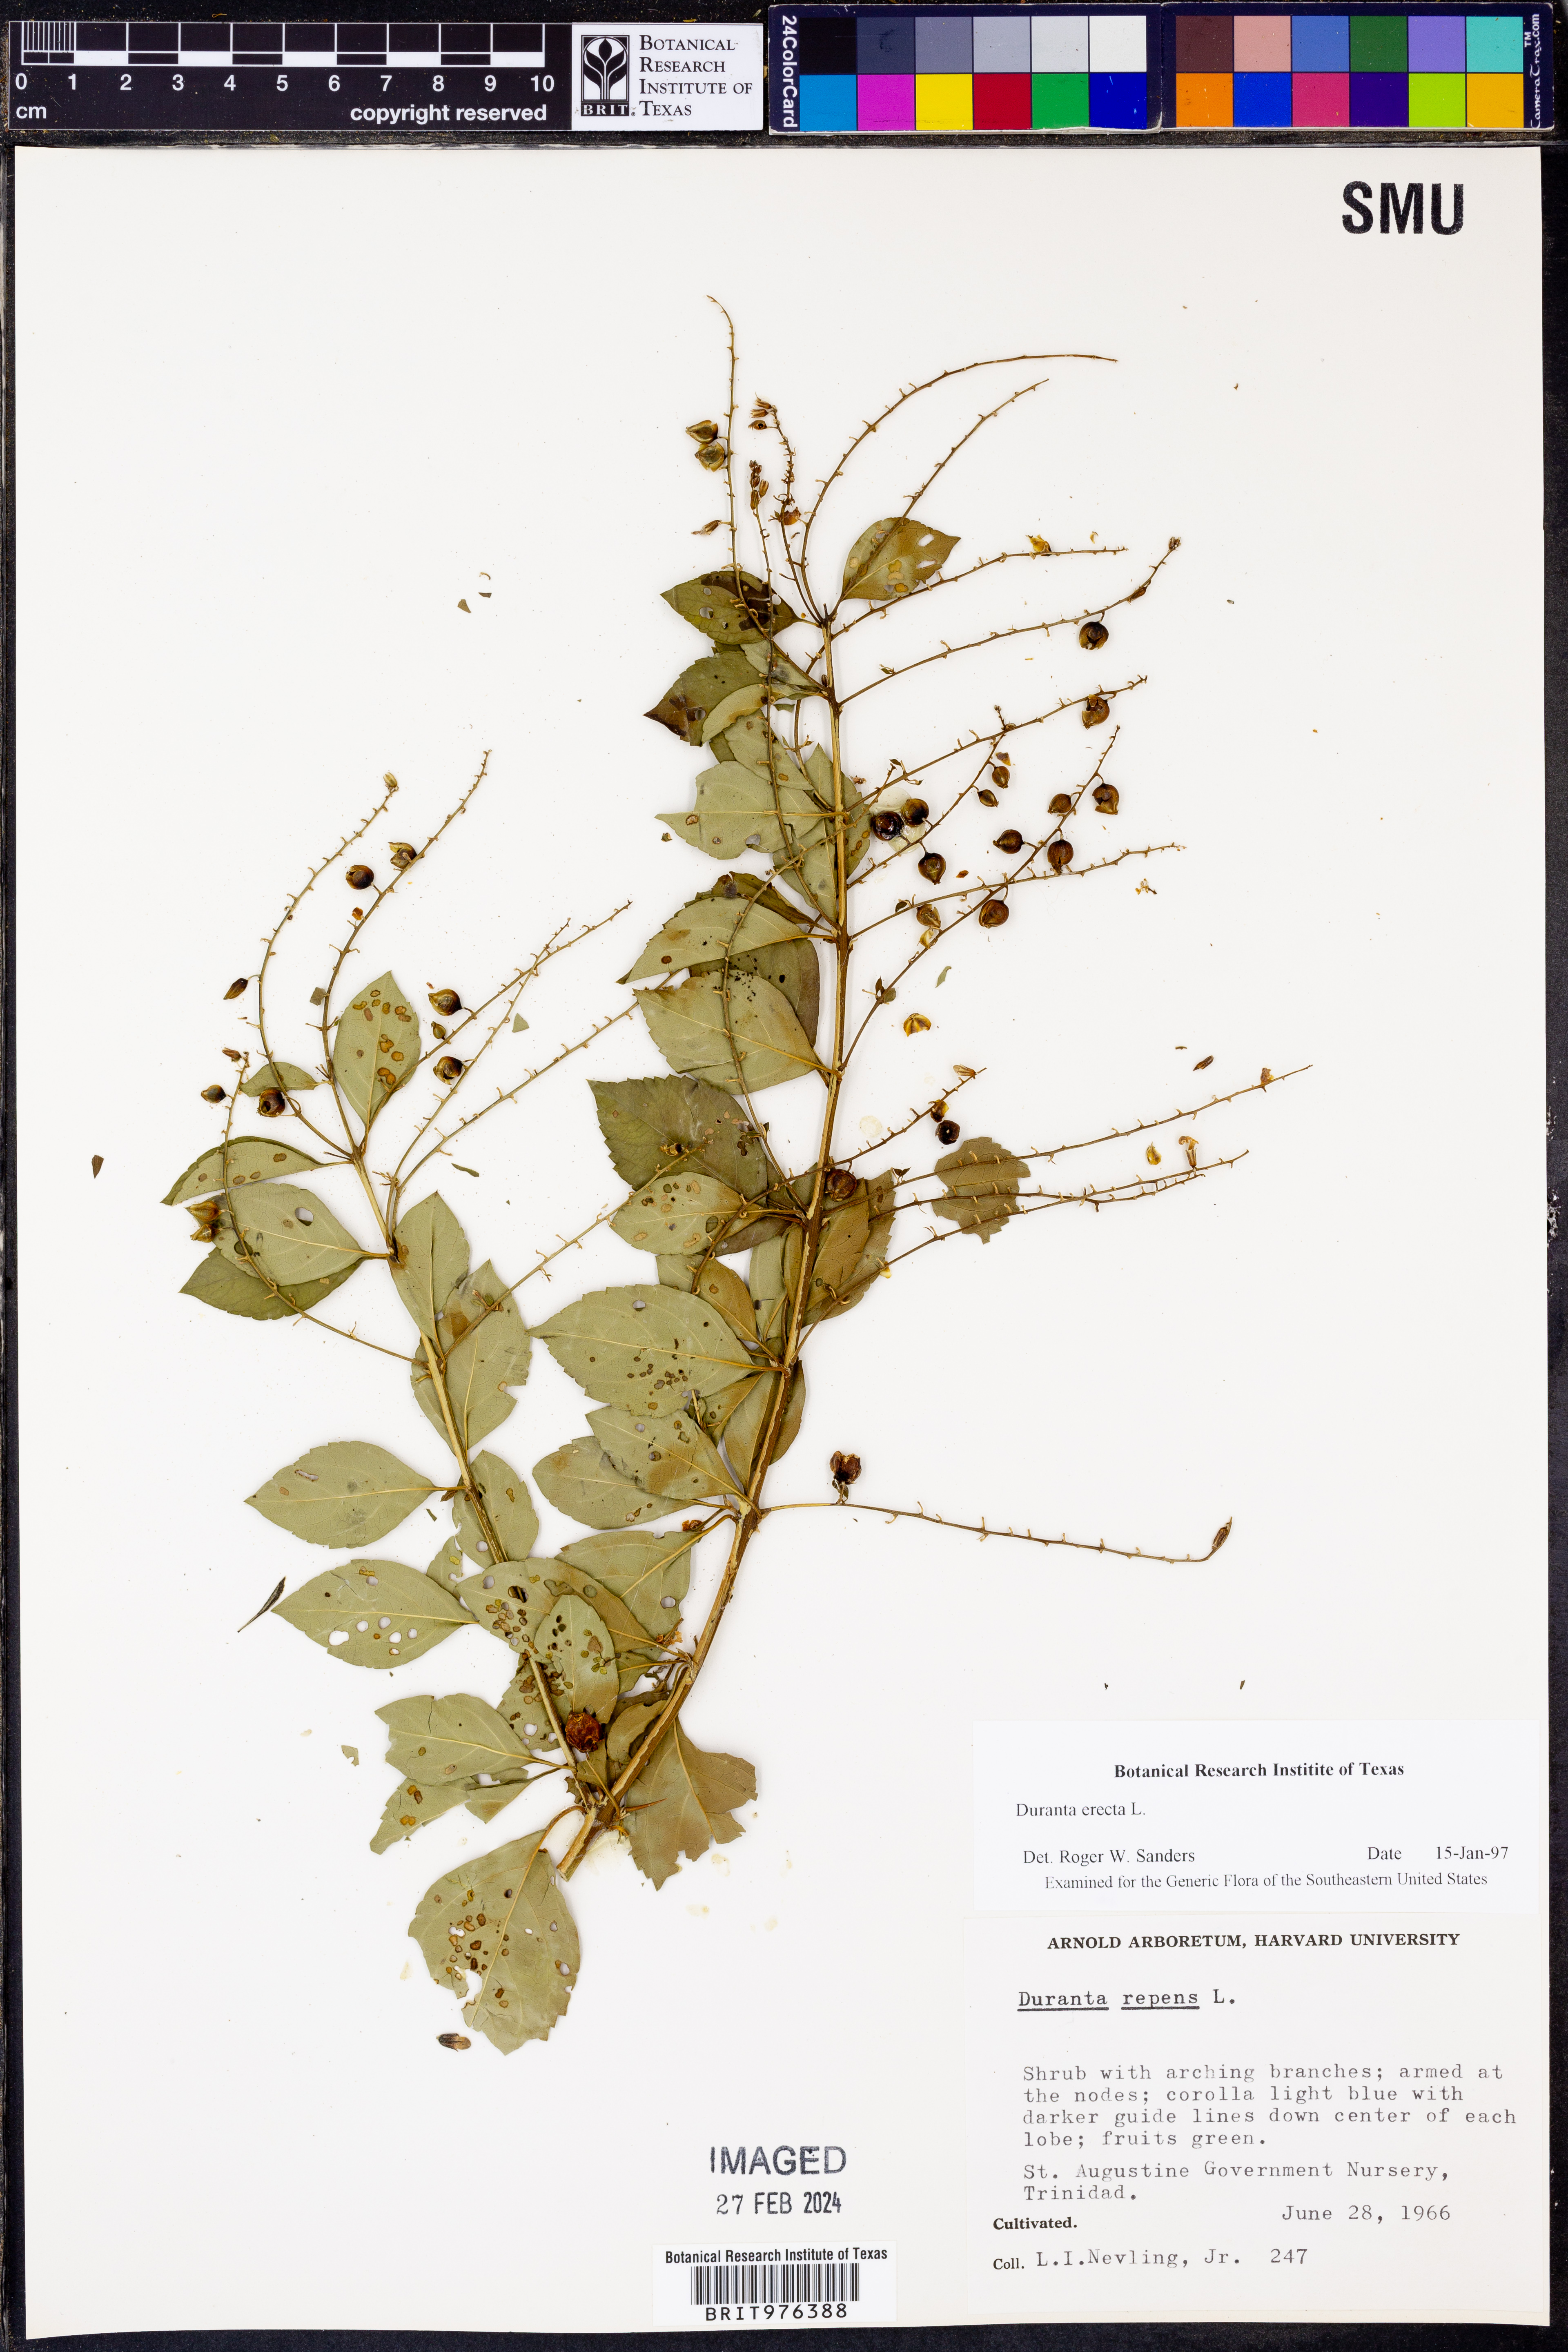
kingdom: Plantae
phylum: Tracheophyta
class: Magnoliopsida
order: Lamiales
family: Verbenaceae
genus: Duranta
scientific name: Duranta
